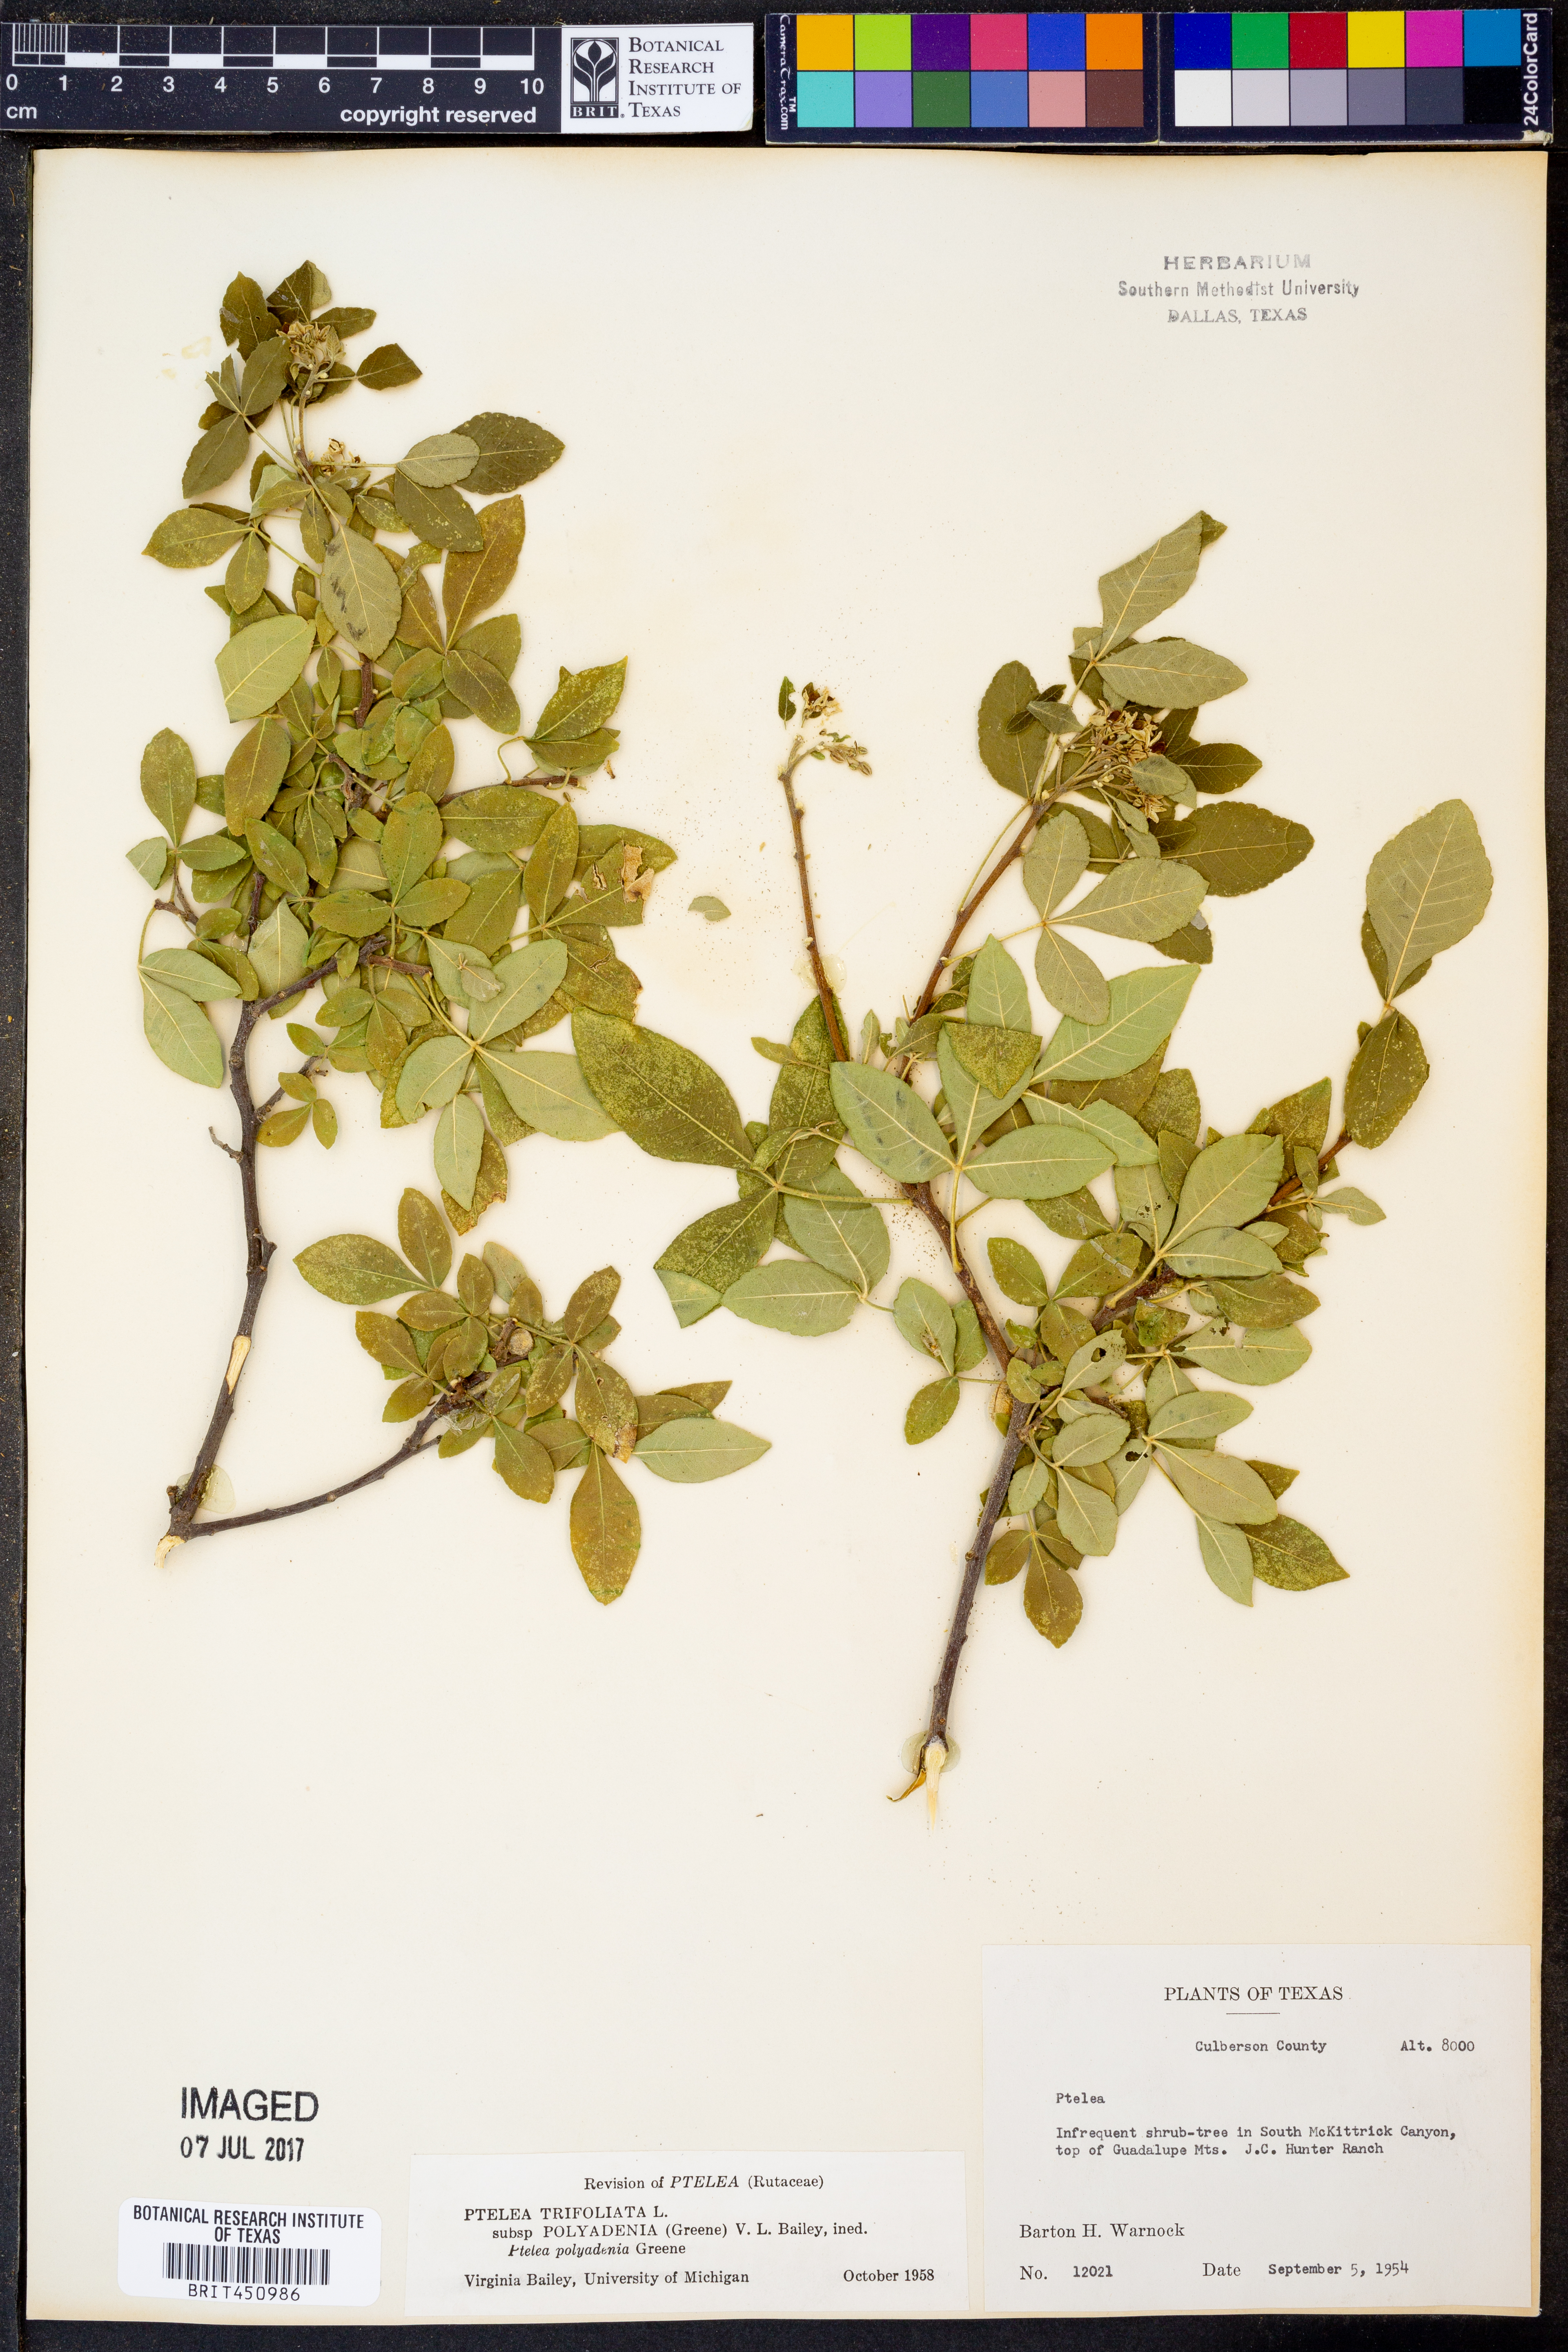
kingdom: Plantae
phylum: Tracheophyta
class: Magnoliopsida
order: Sapindales
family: Rutaceae
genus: Ptelea
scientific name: Ptelea trifoliata
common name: Common hop-tree
